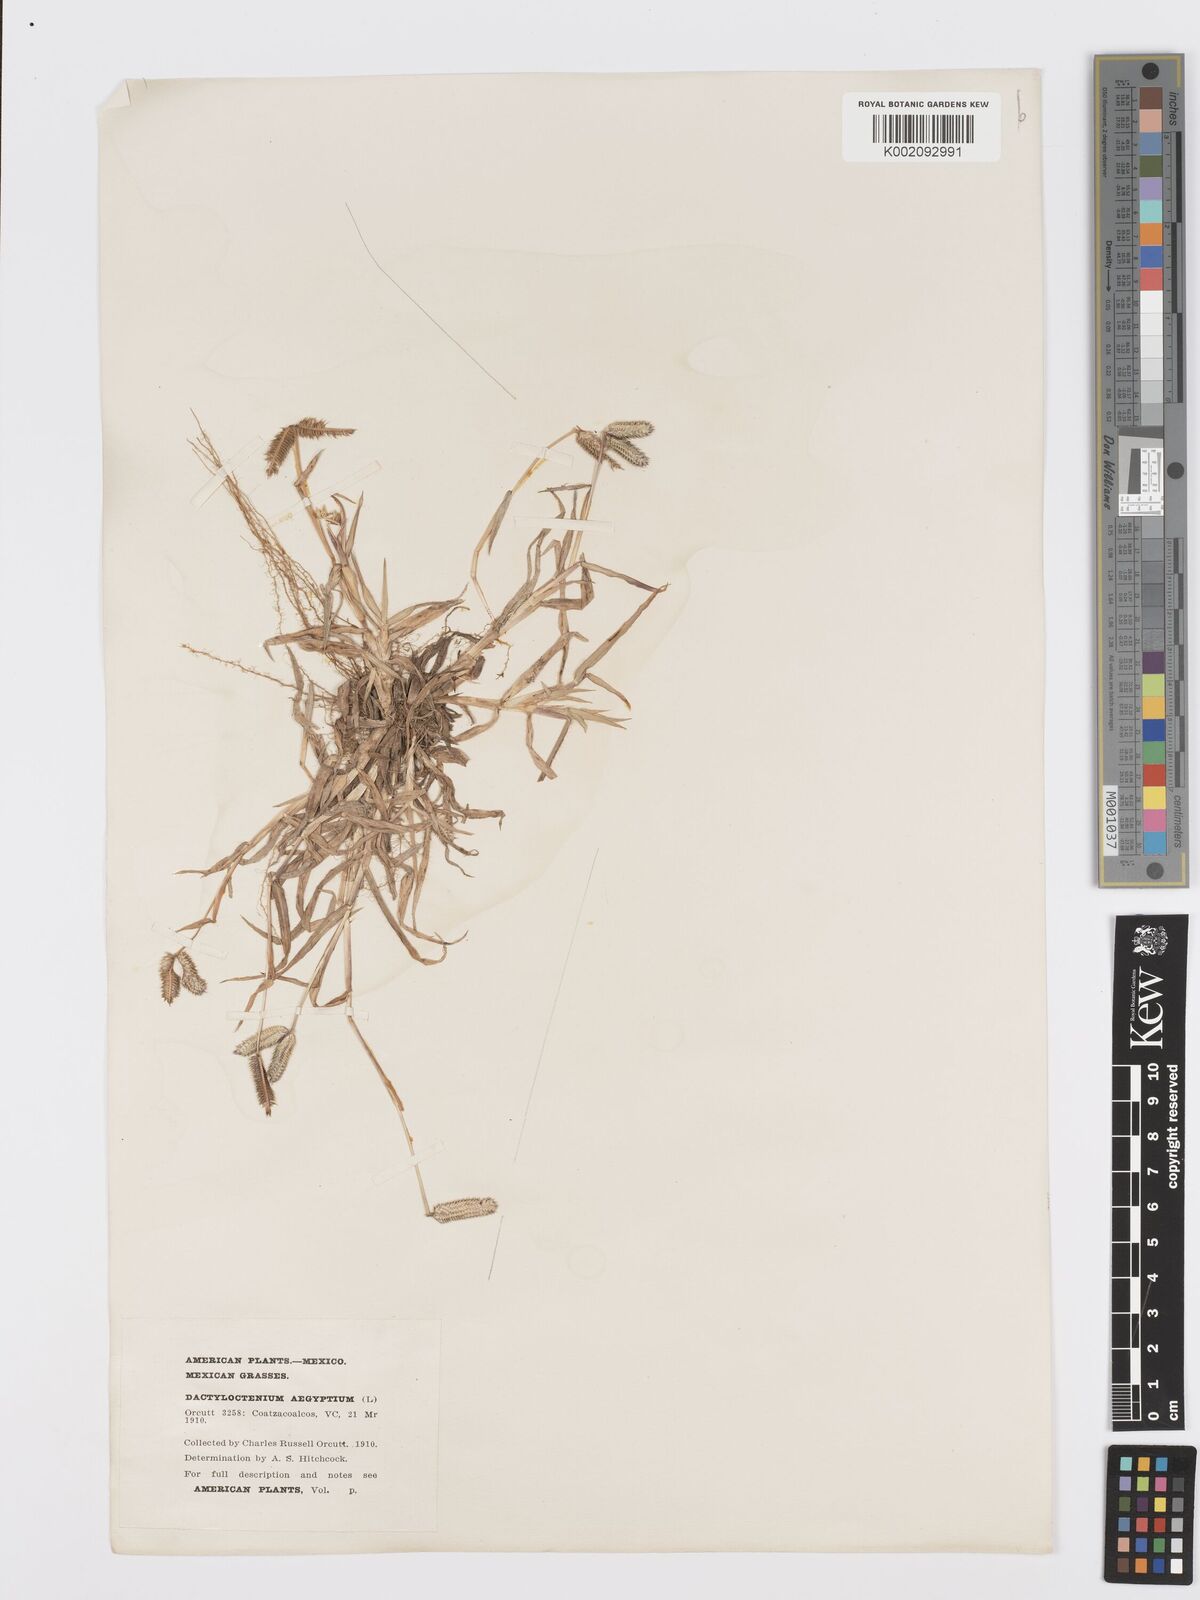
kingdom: Plantae
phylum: Tracheophyta
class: Liliopsida
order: Poales
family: Poaceae
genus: Dactyloctenium
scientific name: Dactyloctenium aegyptium
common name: Egyptian grass
